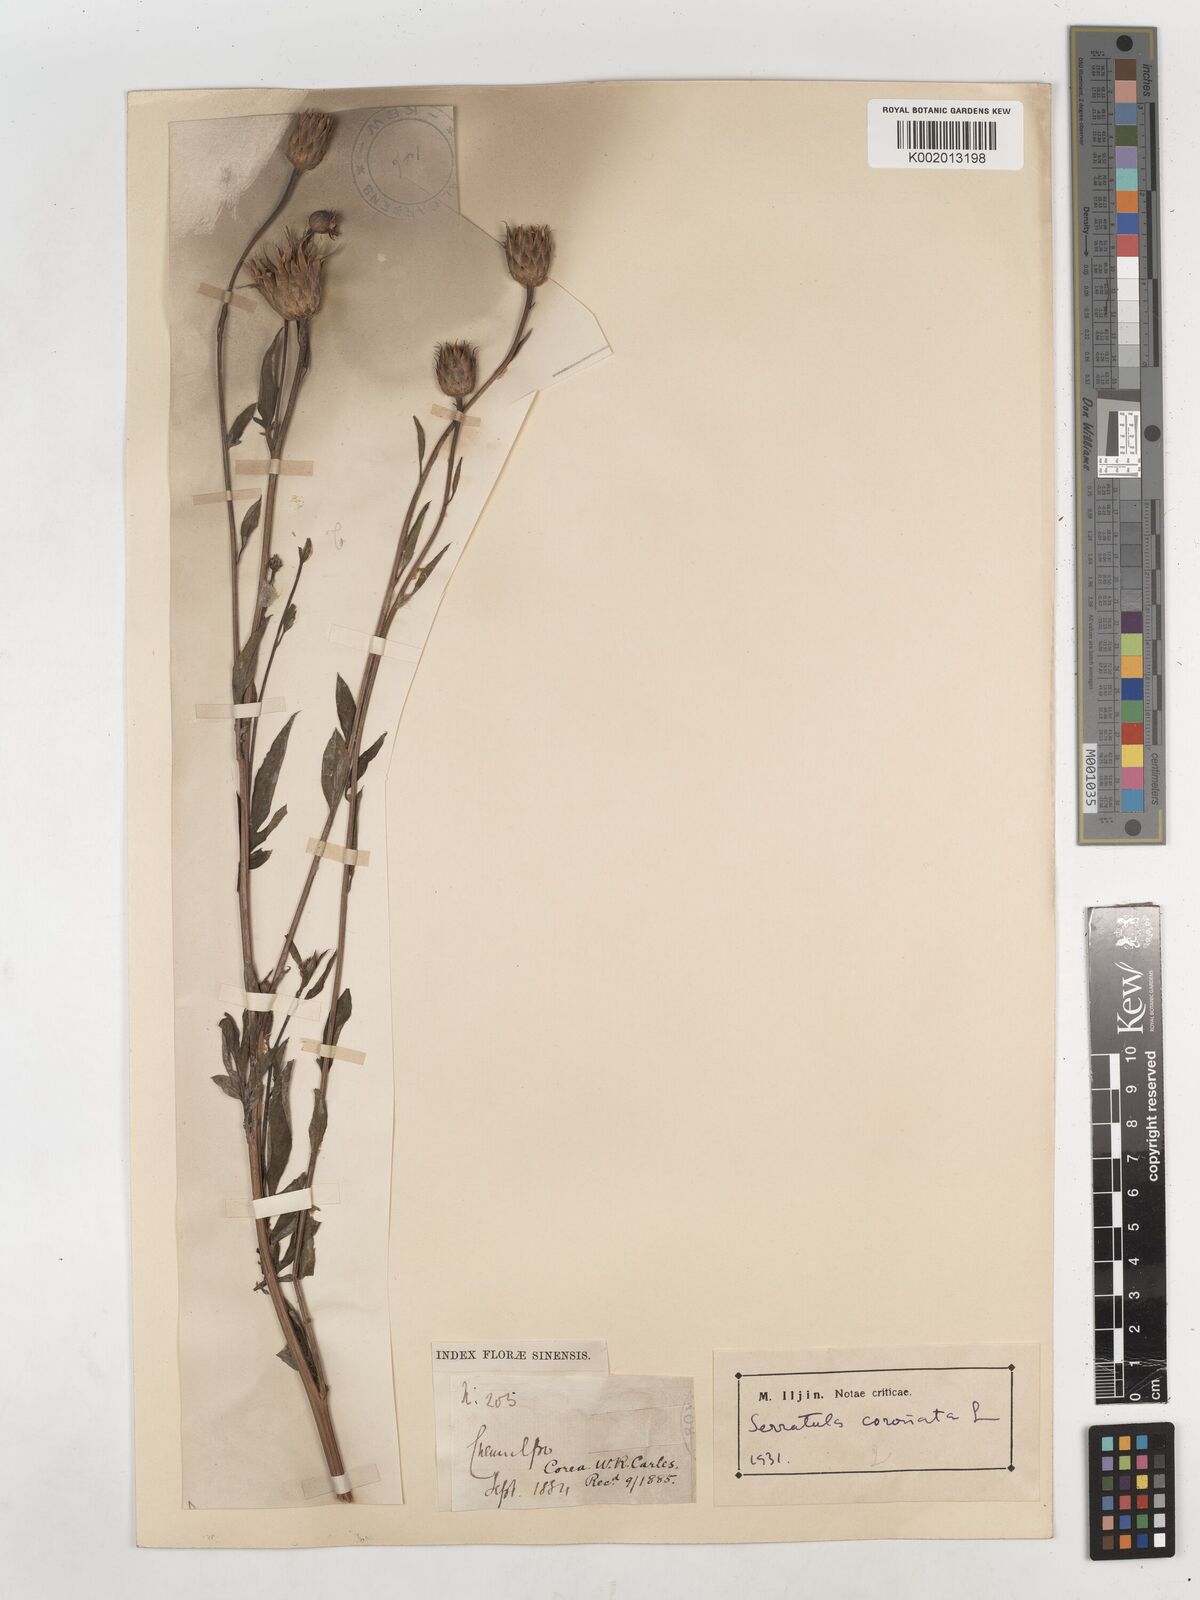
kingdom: Plantae
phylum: Tracheophyta
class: Magnoliopsida
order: Asterales
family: Asteraceae
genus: Serratula
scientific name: Serratula coronata
